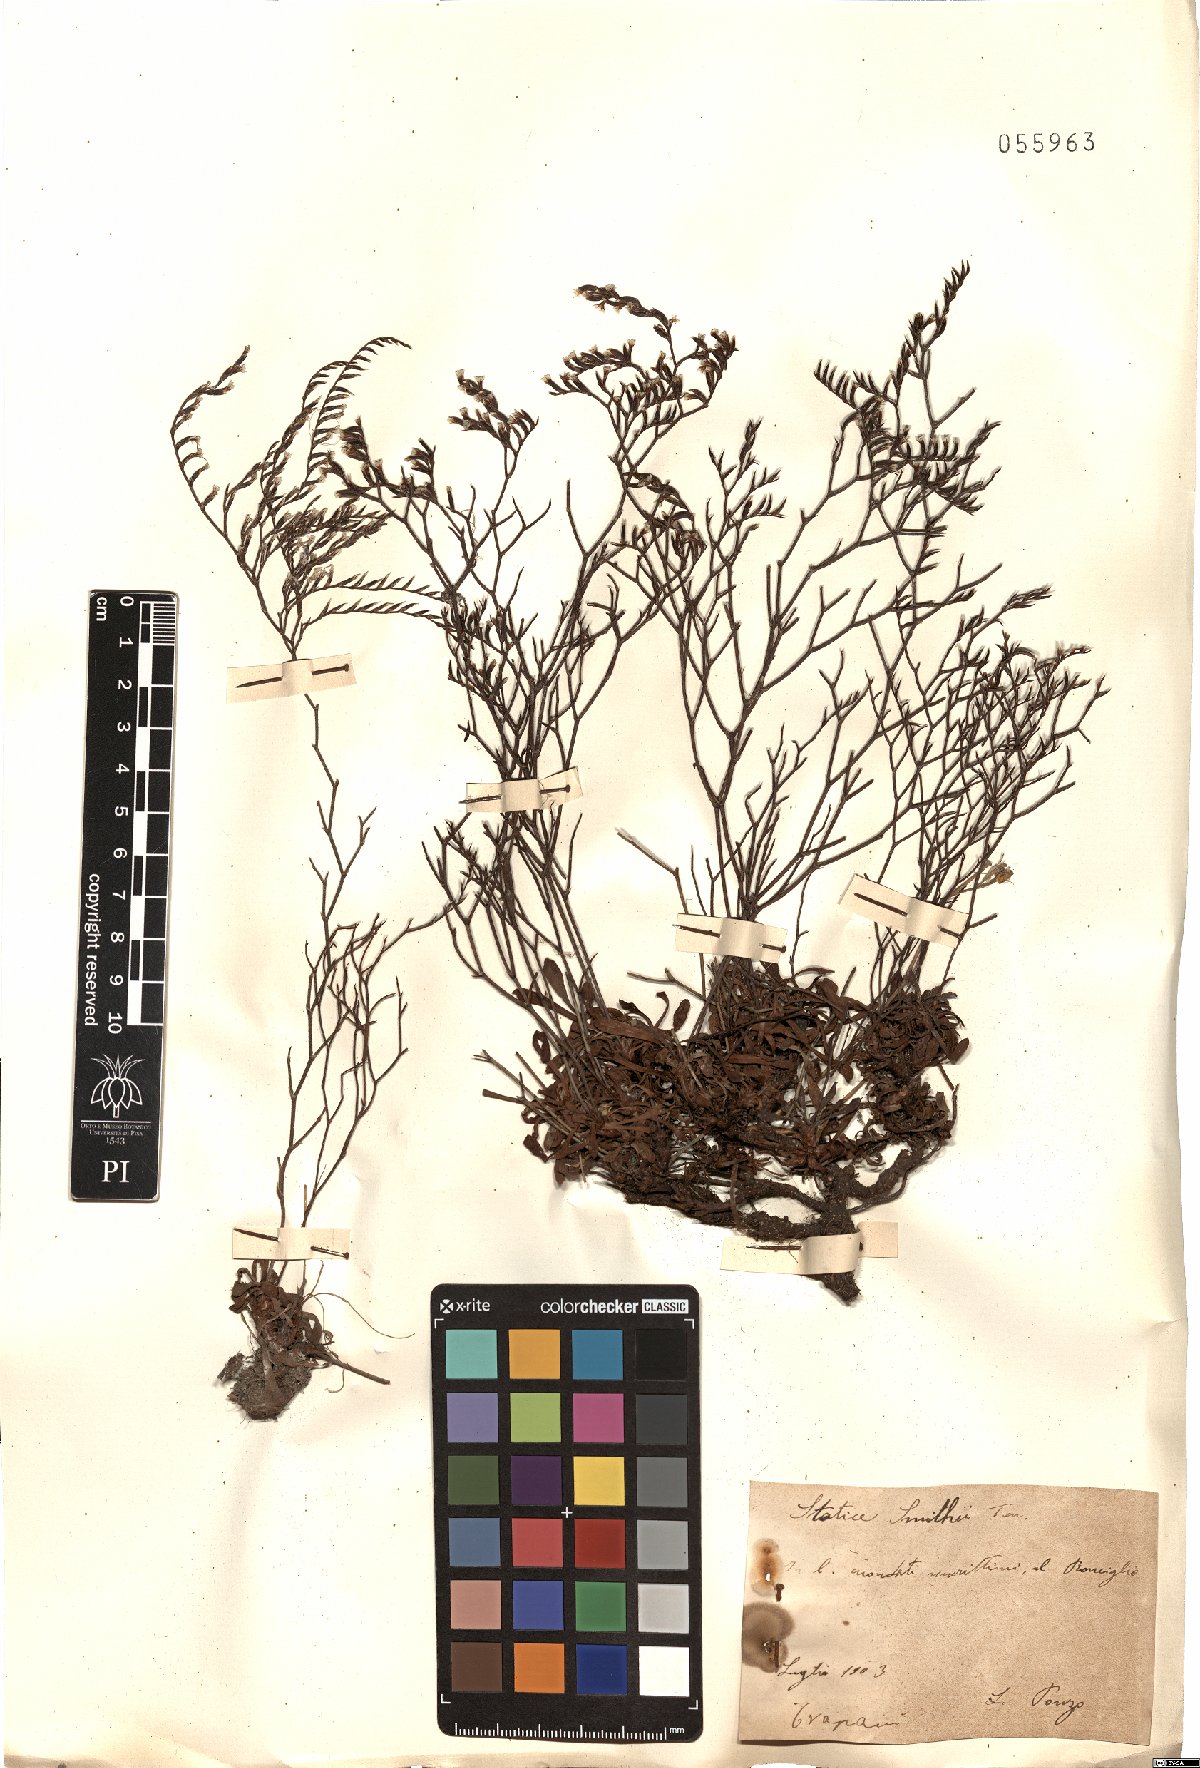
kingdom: Plantae
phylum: Tracheophyta
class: Magnoliopsida
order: Caryophyllales
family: Plumbaginaceae
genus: Limonium
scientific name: Limonium virgatum
